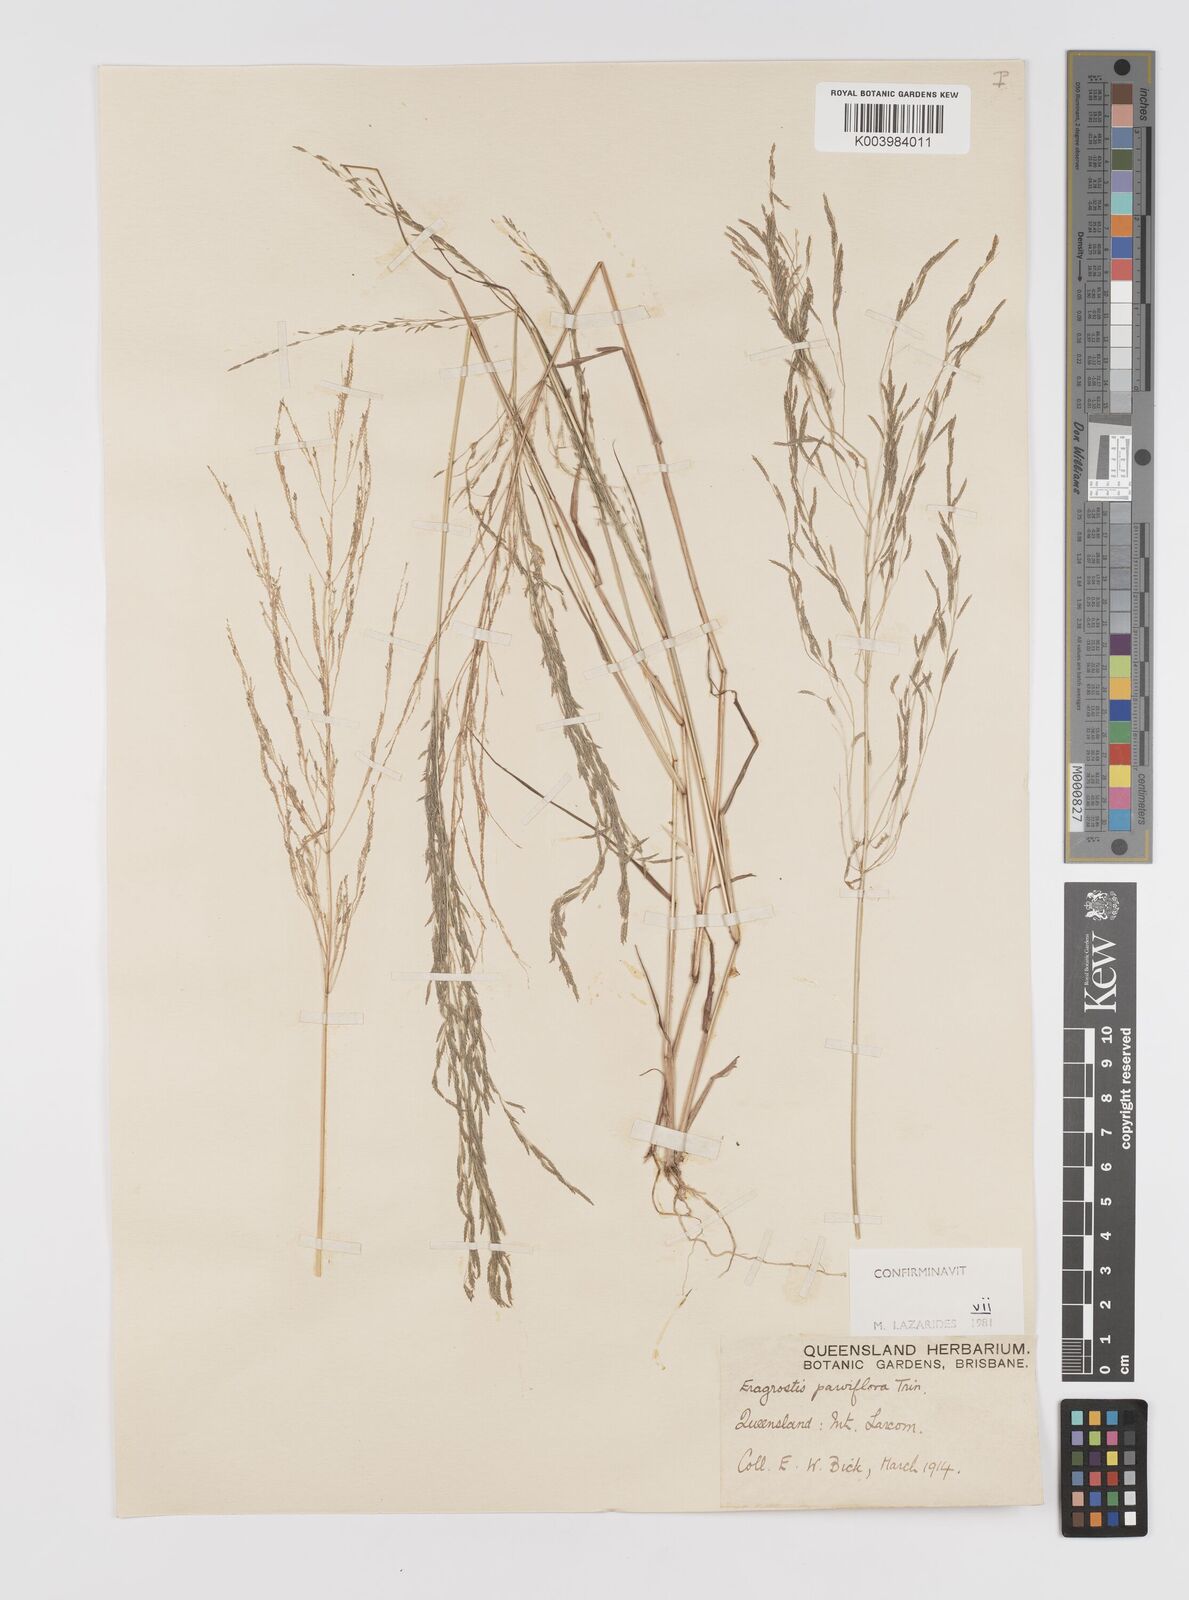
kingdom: Plantae
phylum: Tracheophyta
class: Liliopsida
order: Poales
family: Poaceae
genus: Eragrostis
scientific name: Eragrostis parviflora
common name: Weeping love-grass
